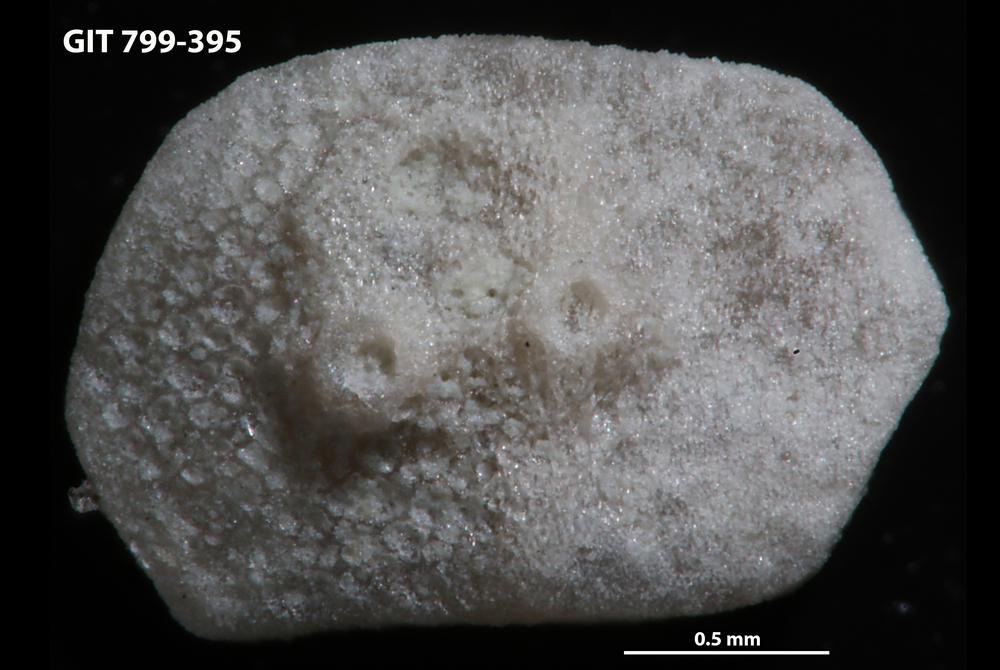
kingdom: Animalia
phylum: Echinodermata
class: Echinoidea
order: Bothriocidaroida
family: Bothriocidaridae
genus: Bothriocidaris
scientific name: Bothriocidaris
